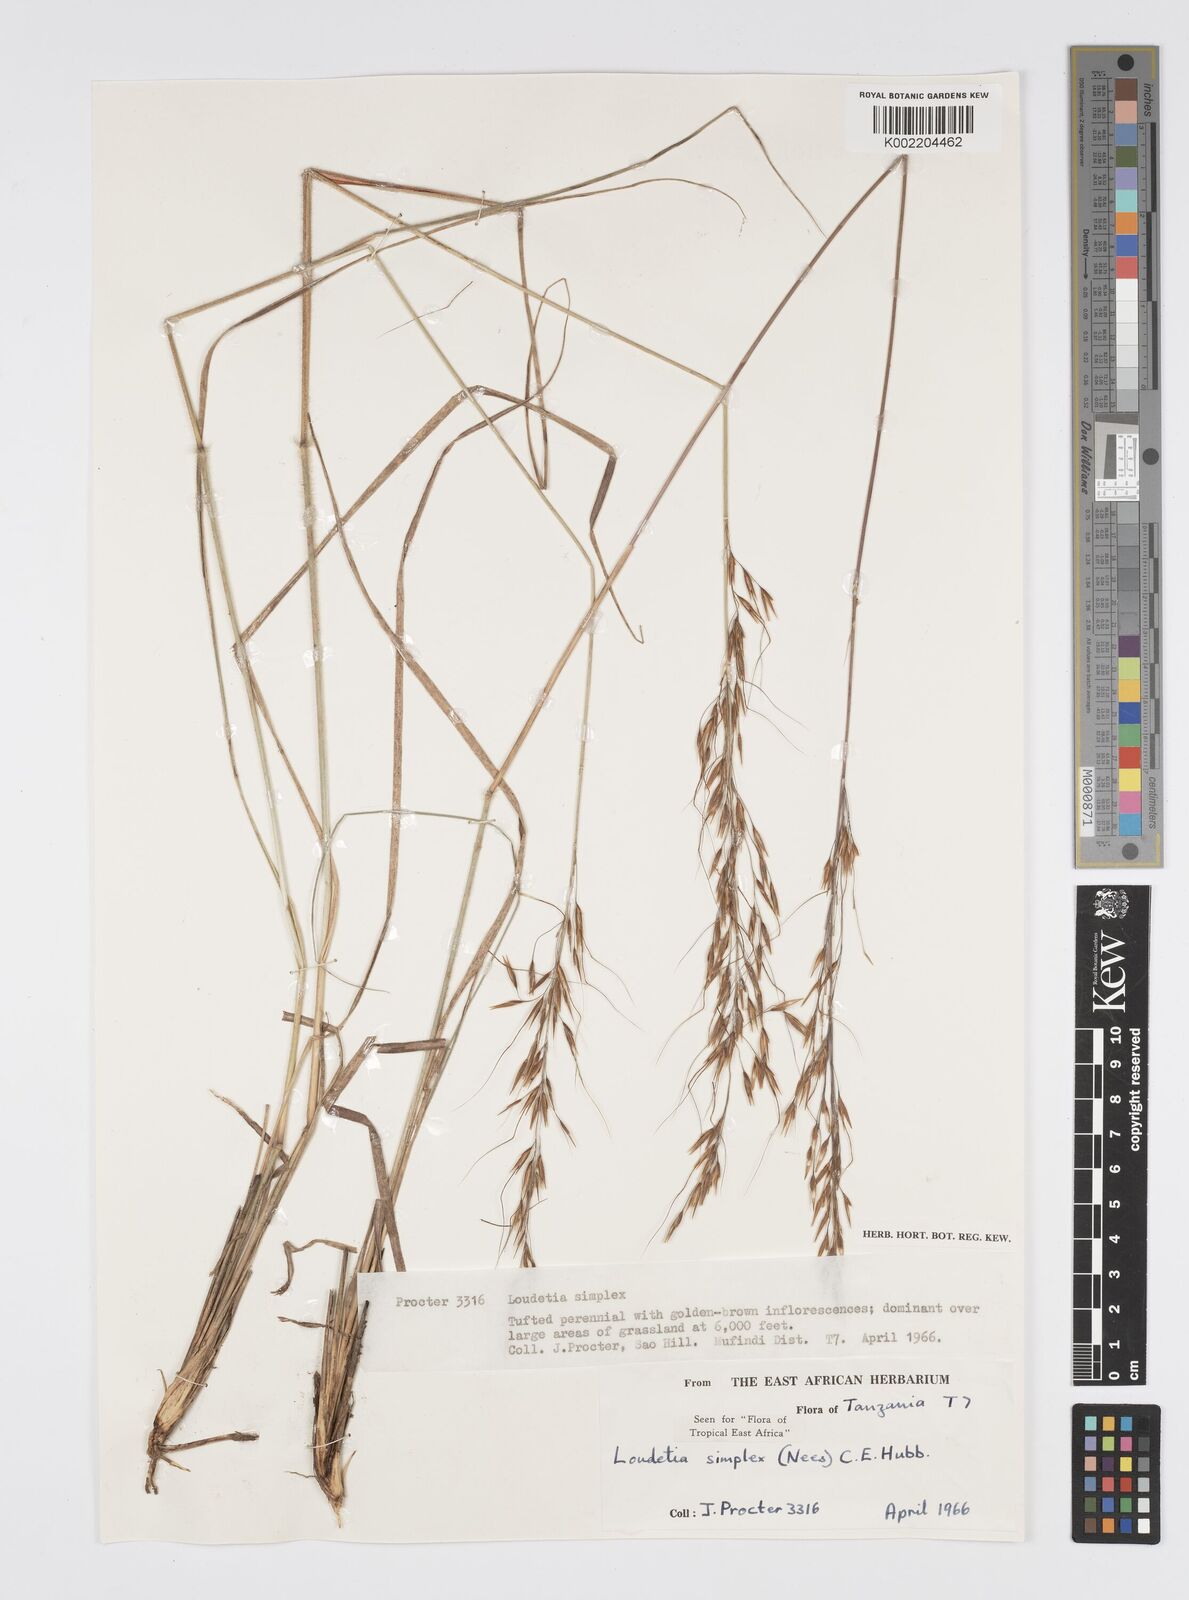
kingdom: Plantae
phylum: Tracheophyta
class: Liliopsida
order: Poales
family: Poaceae
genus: Loudetia
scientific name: Loudetia simplex
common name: Common russet grass
